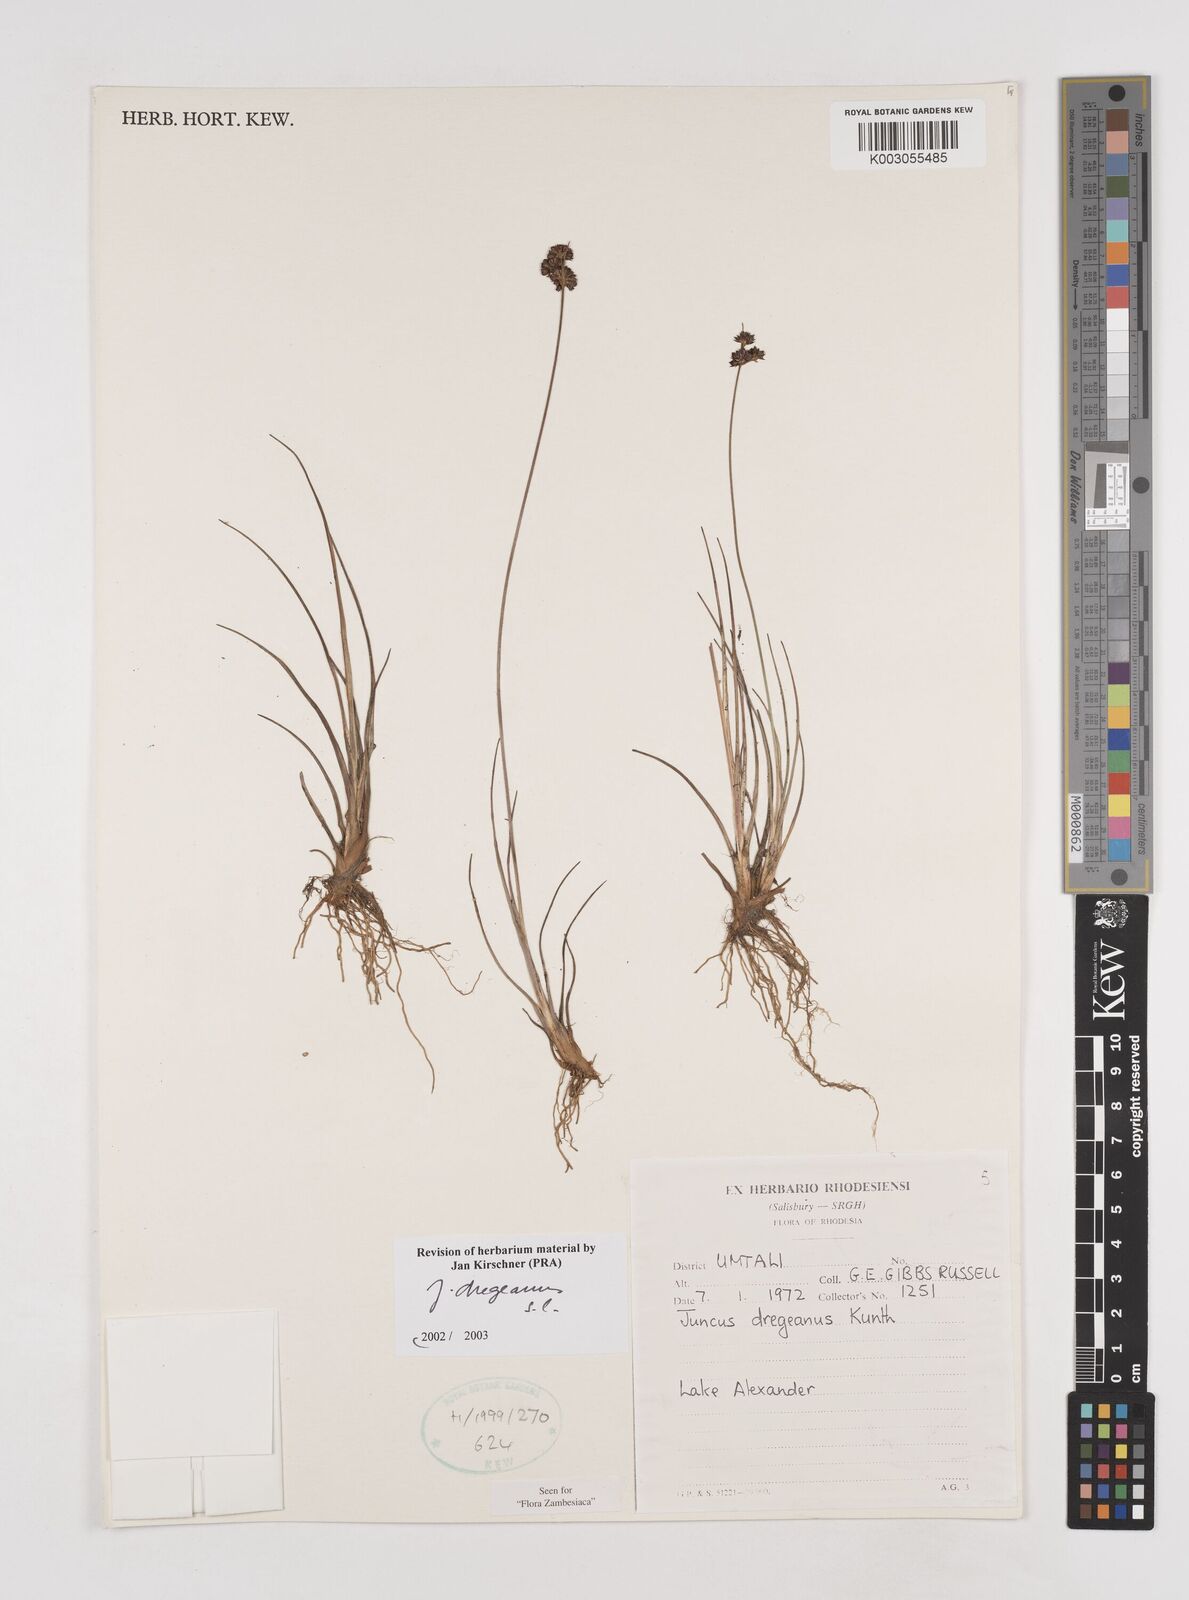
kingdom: Plantae
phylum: Tracheophyta
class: Liliopsida
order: Poales
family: Juncaceae
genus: Juncus
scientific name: Juncus dregeanus
